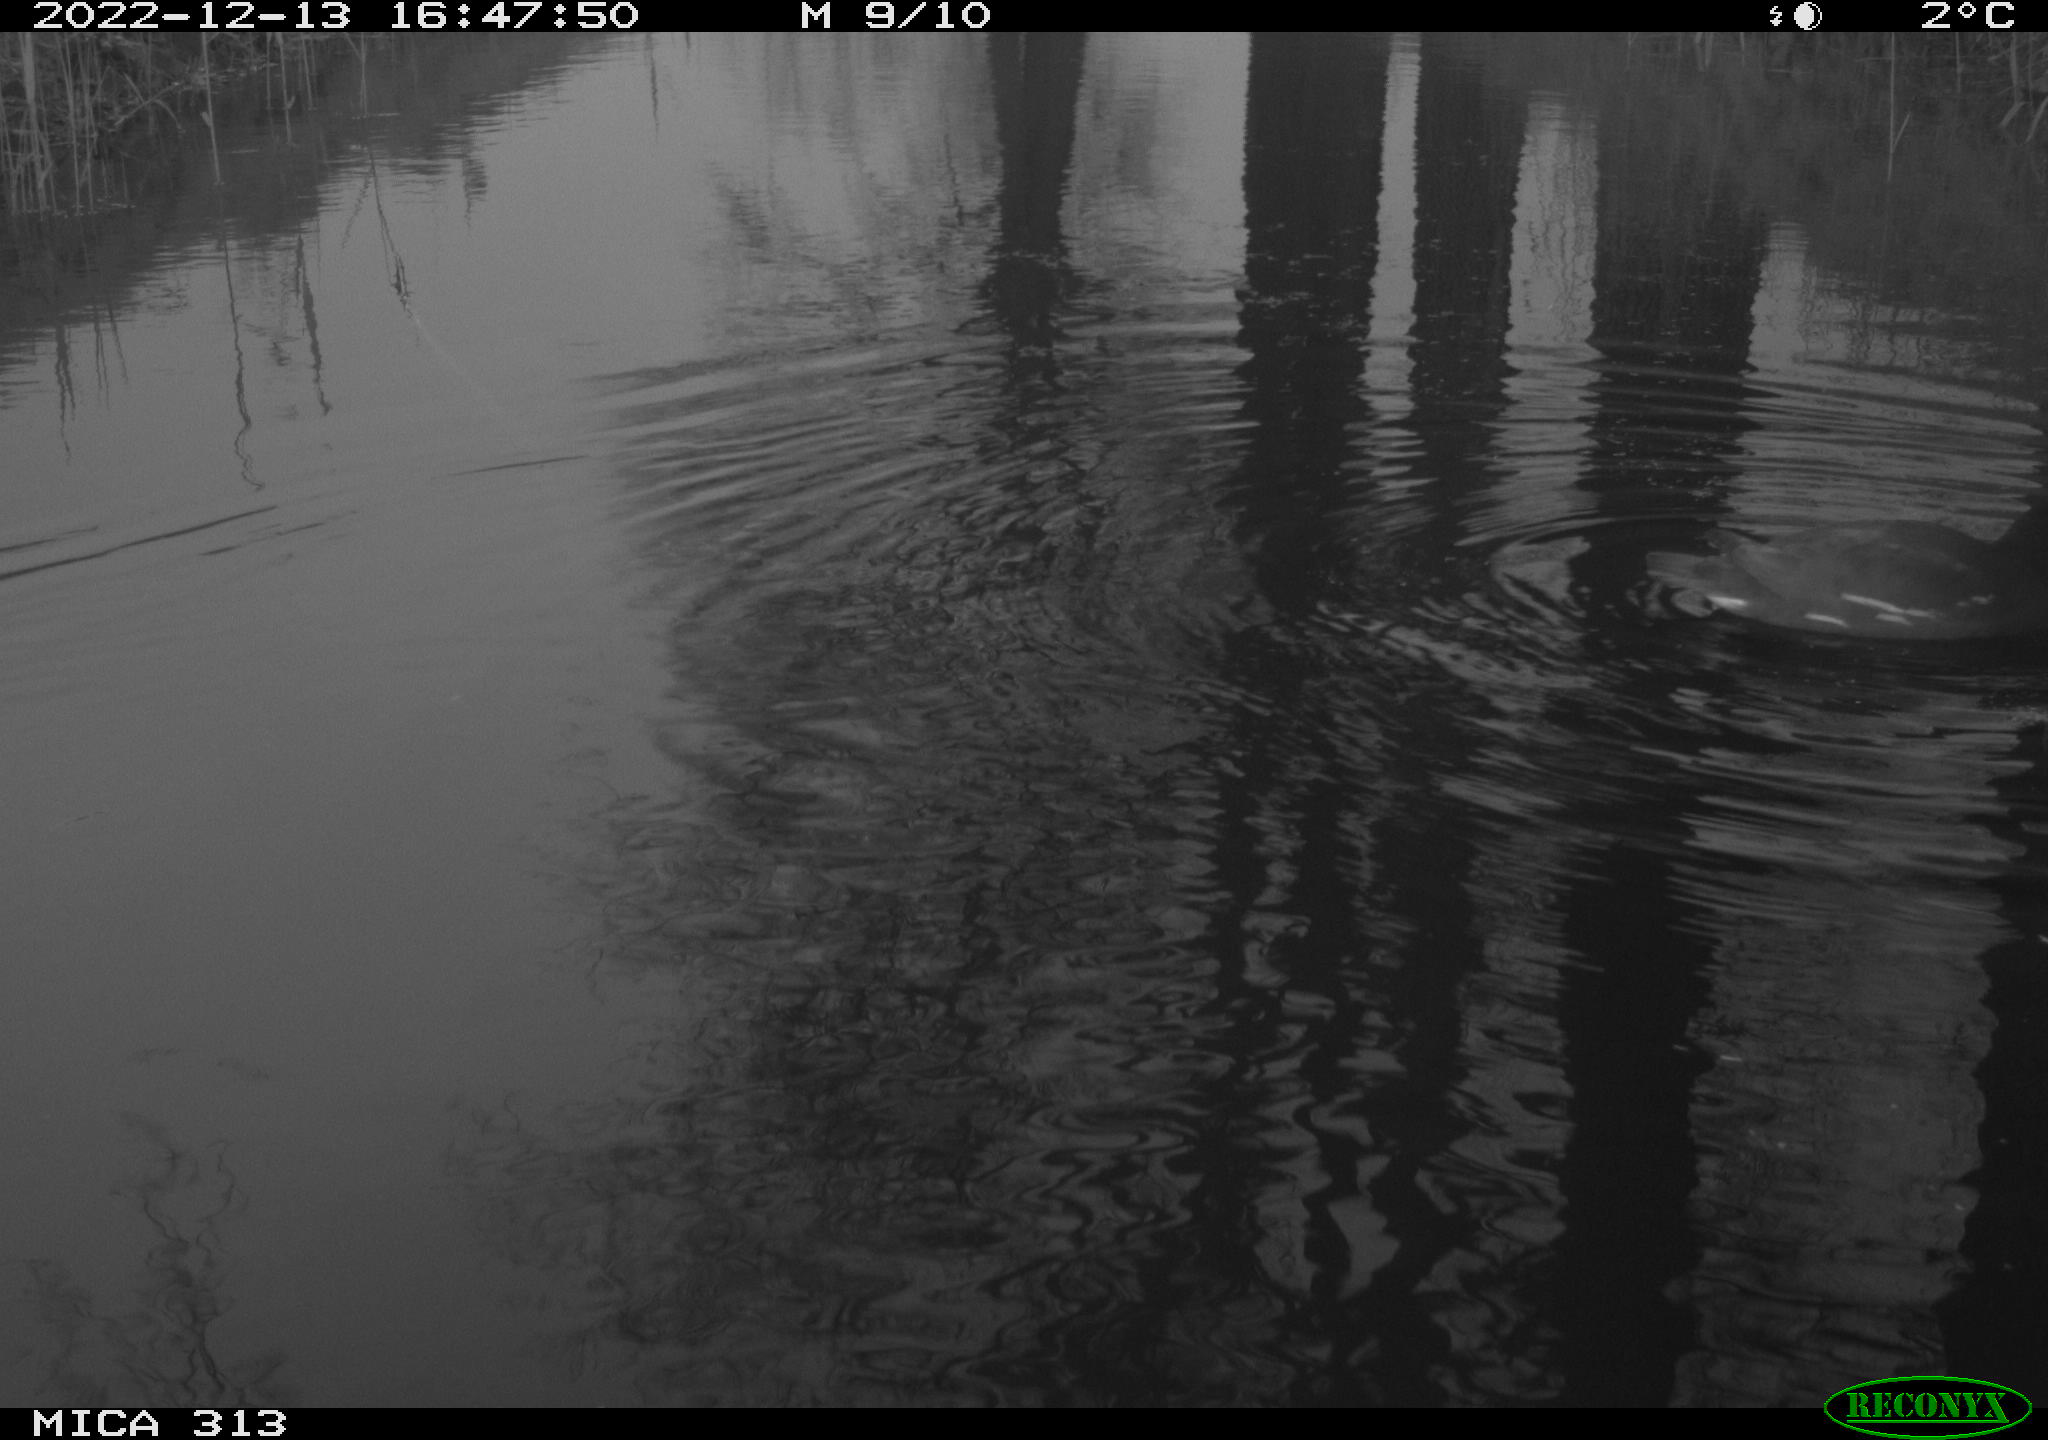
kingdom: Animalia
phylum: Chordata
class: Aves
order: Gruiformes
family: Rallidae
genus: Gallinula
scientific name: Gallinula chloropus
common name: Common moorhen
